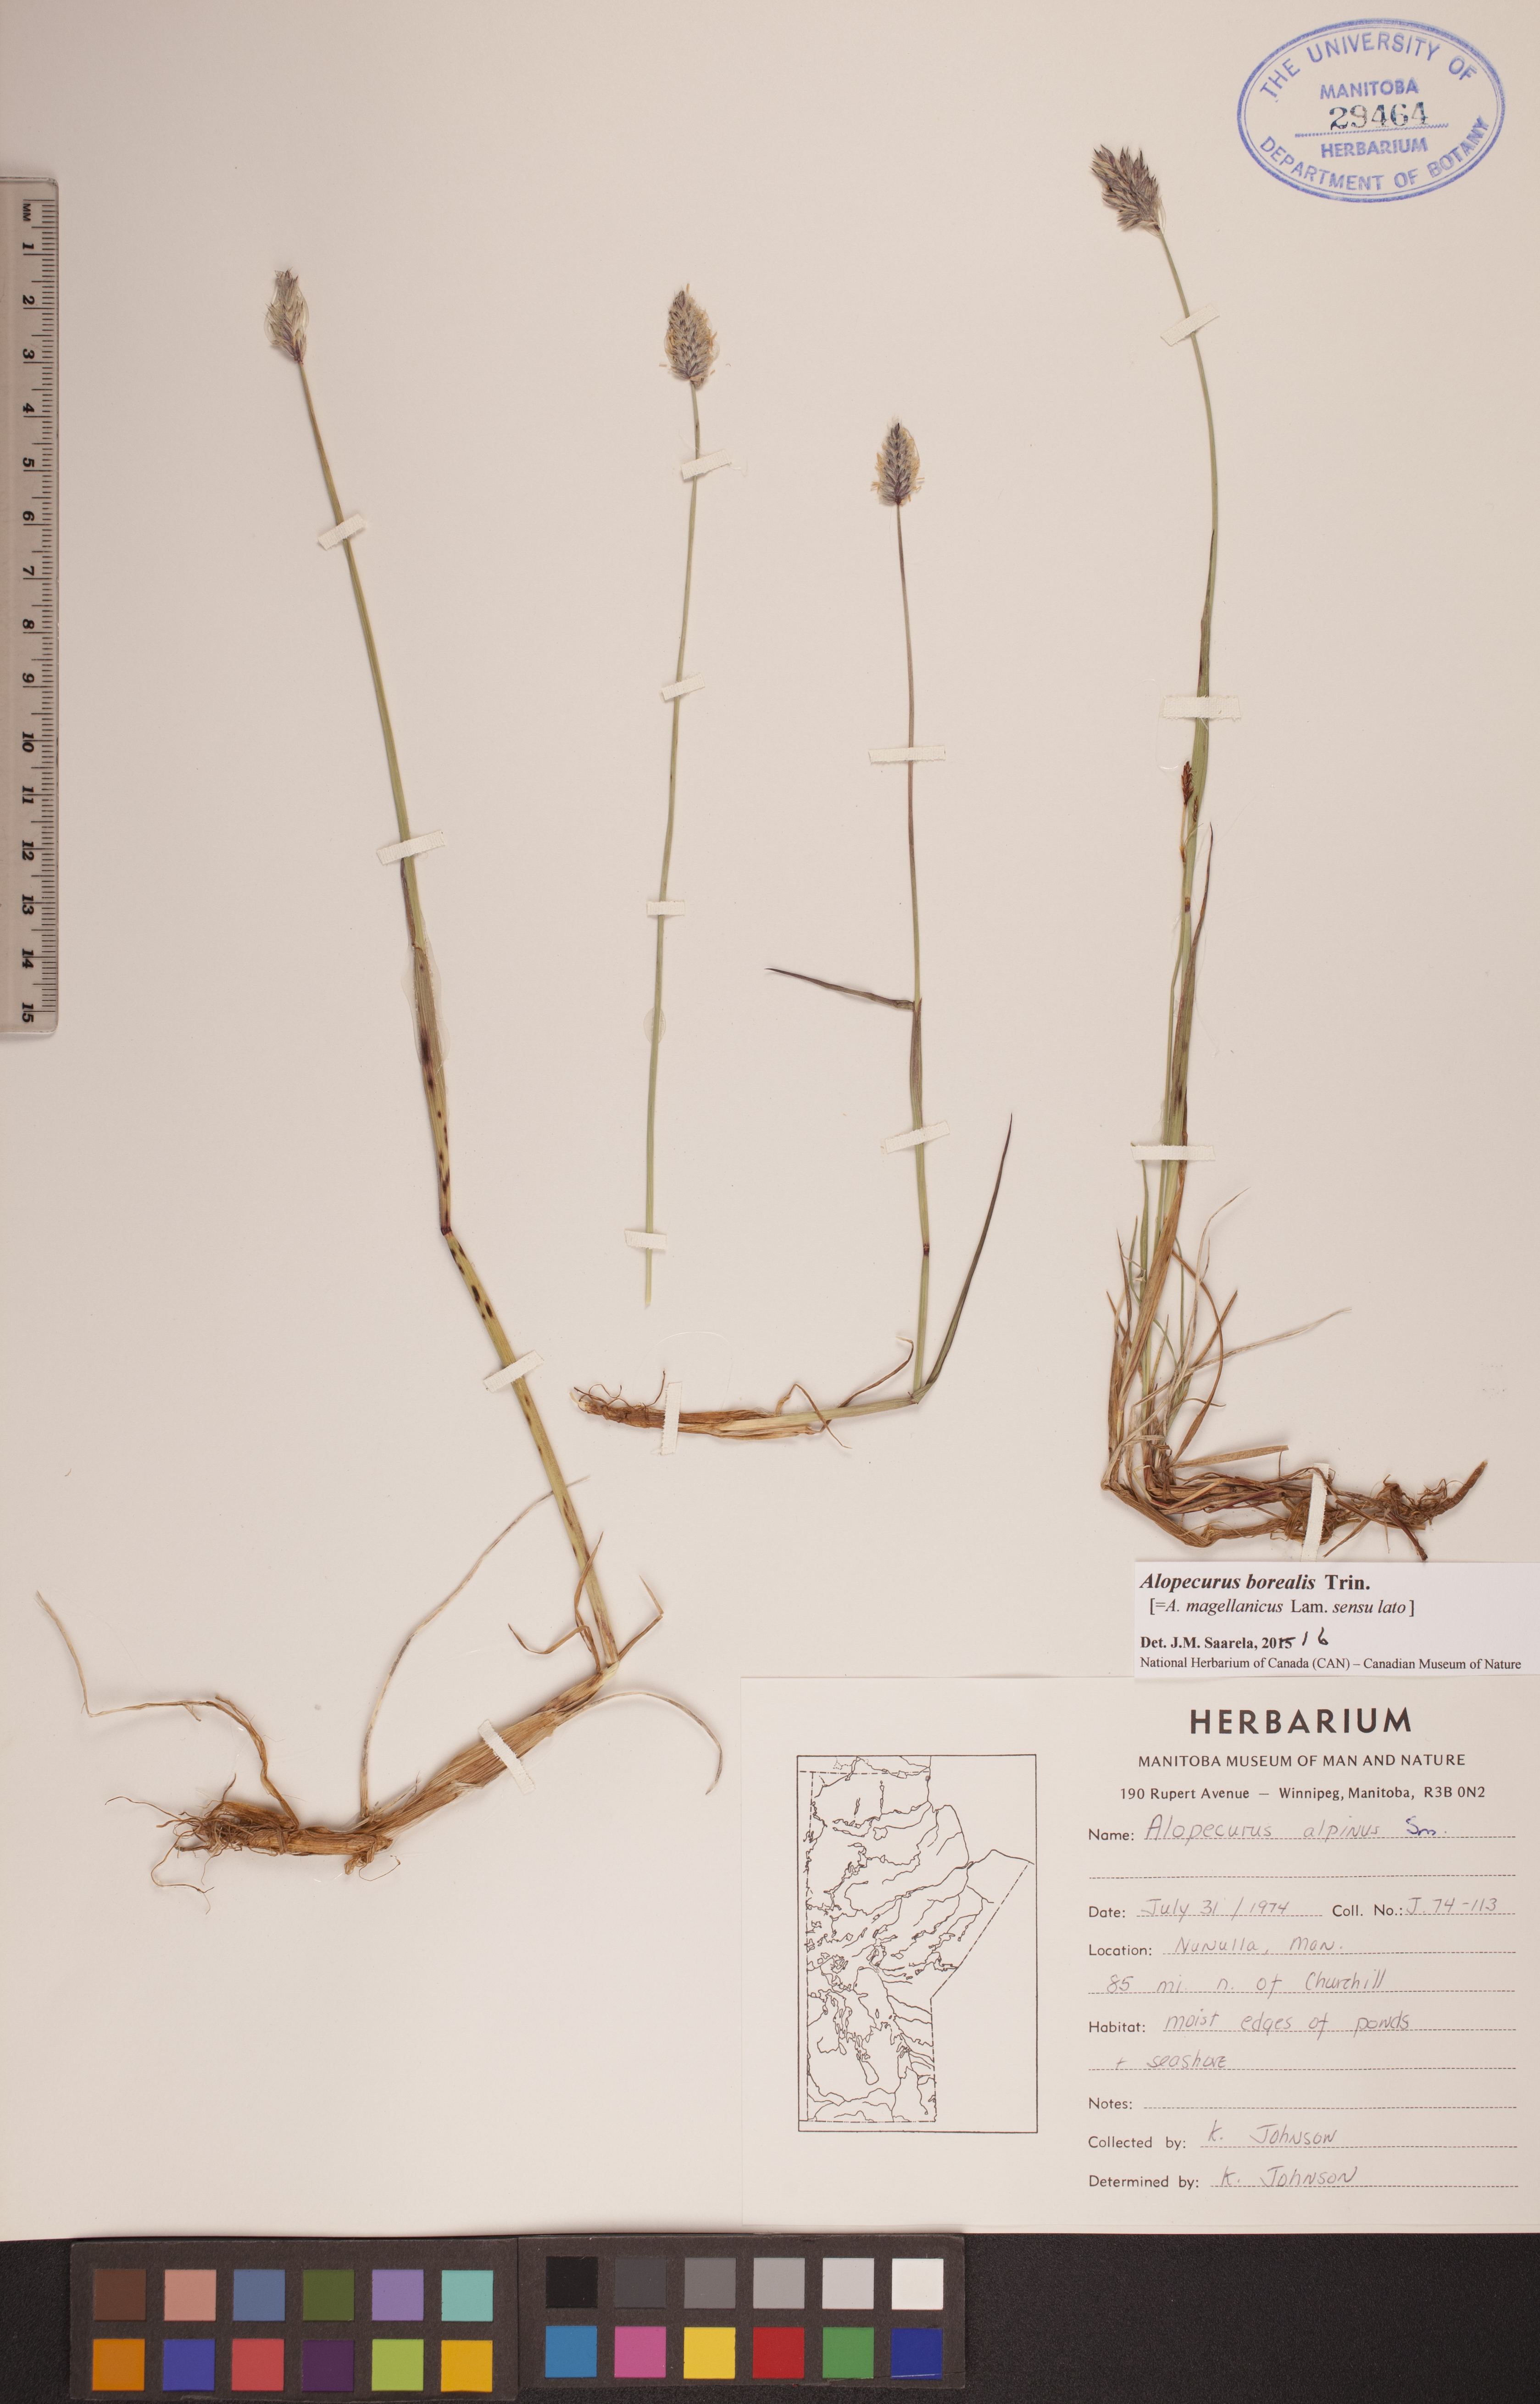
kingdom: Plantae
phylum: Tracheophyta
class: Liliopsida
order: Poales
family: Poaceae
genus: Alopecurus
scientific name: Alopecurus magellanicus
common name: Alpine foxtail
